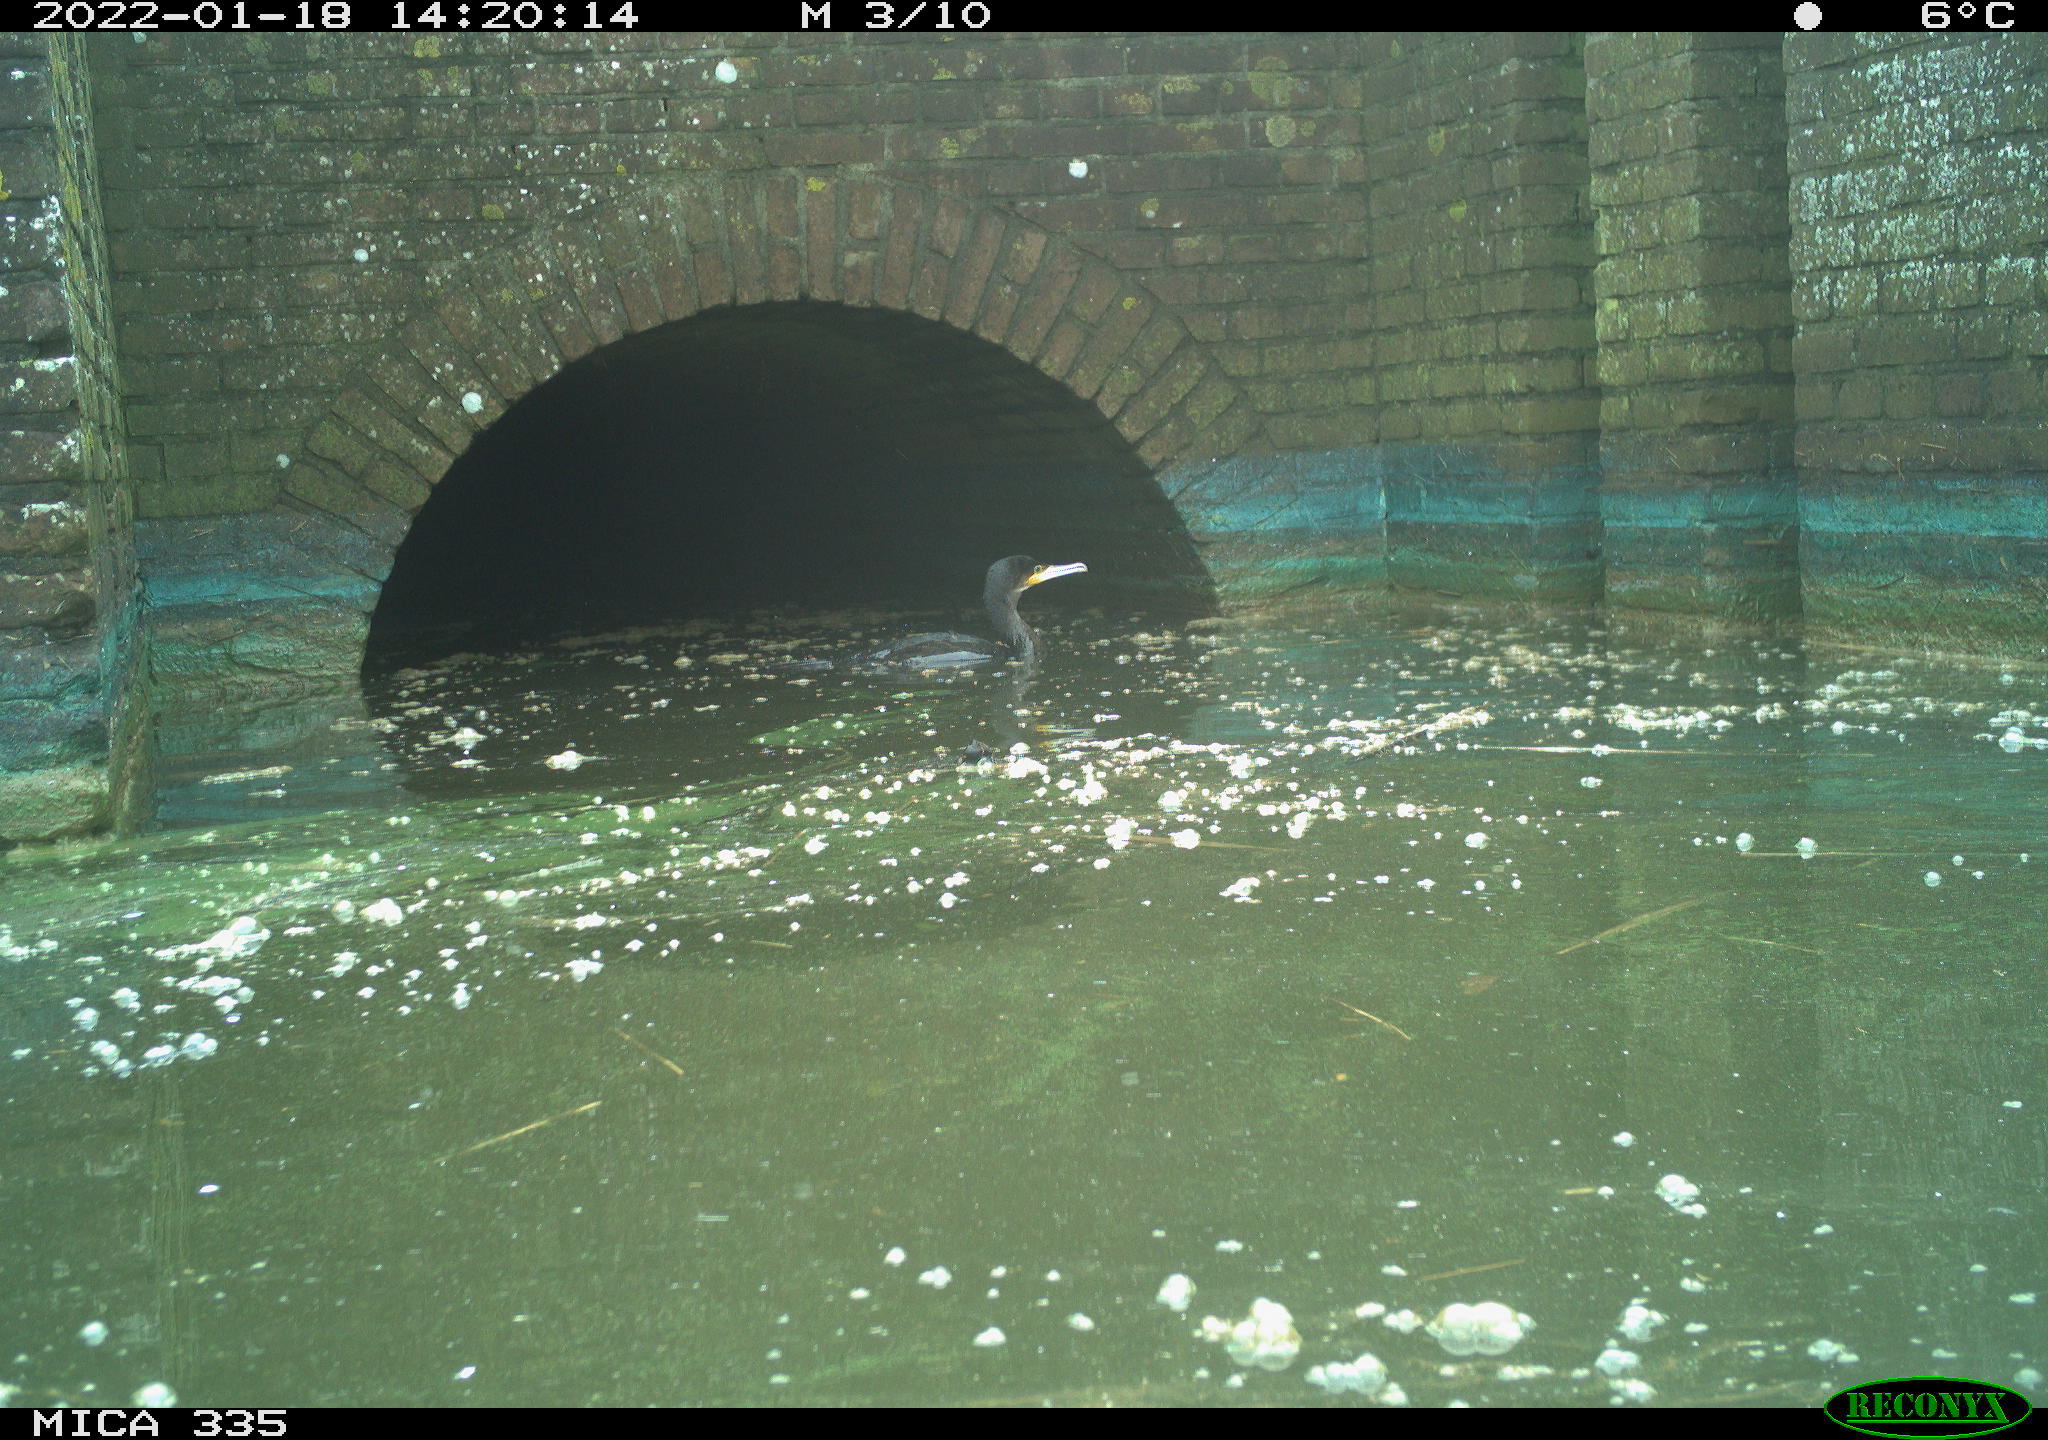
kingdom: Animalia
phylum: Chordata
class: Aves
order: Gruiformes
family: Rallidae
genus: Gallinula
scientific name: Gallinula chloropus
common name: Common moorhen
